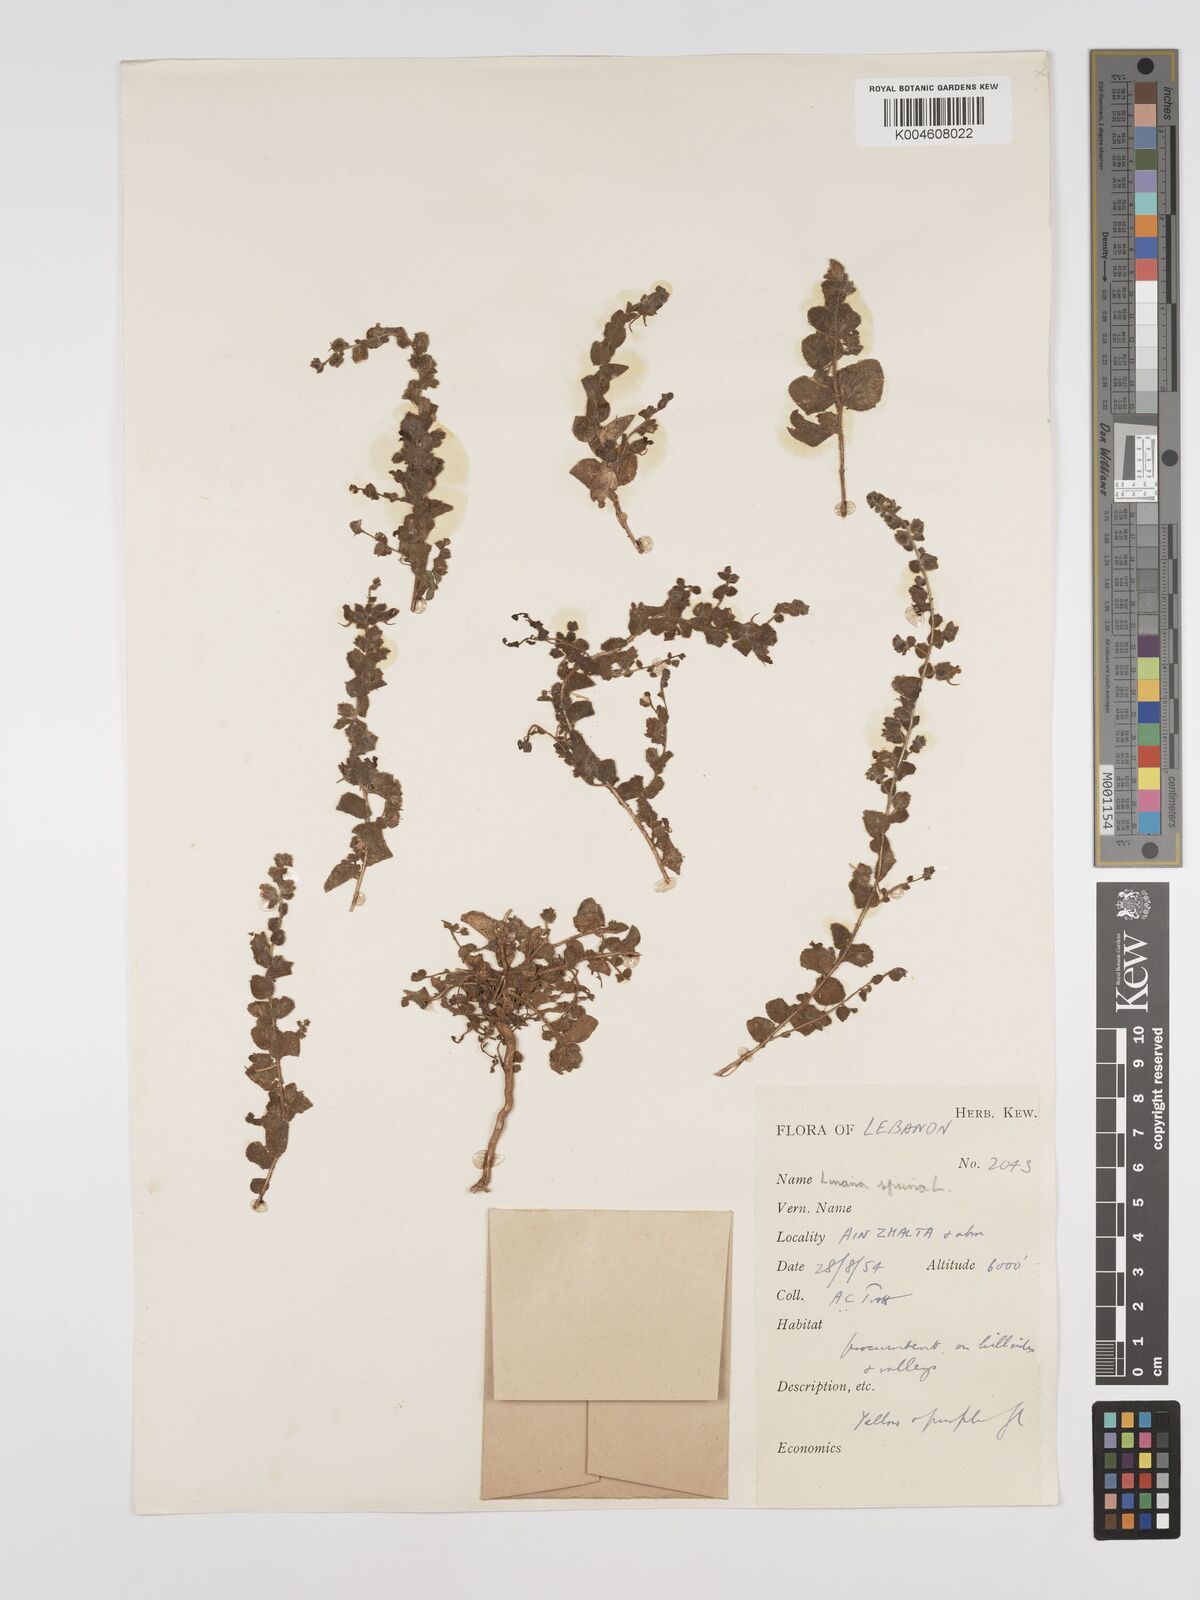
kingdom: Plantae
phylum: Tracheophyta
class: Magnoliopsida
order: Lamiales
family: Plantaginaceae
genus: Kickxia
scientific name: Kickxia spuria
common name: Round-leaved fluellen
